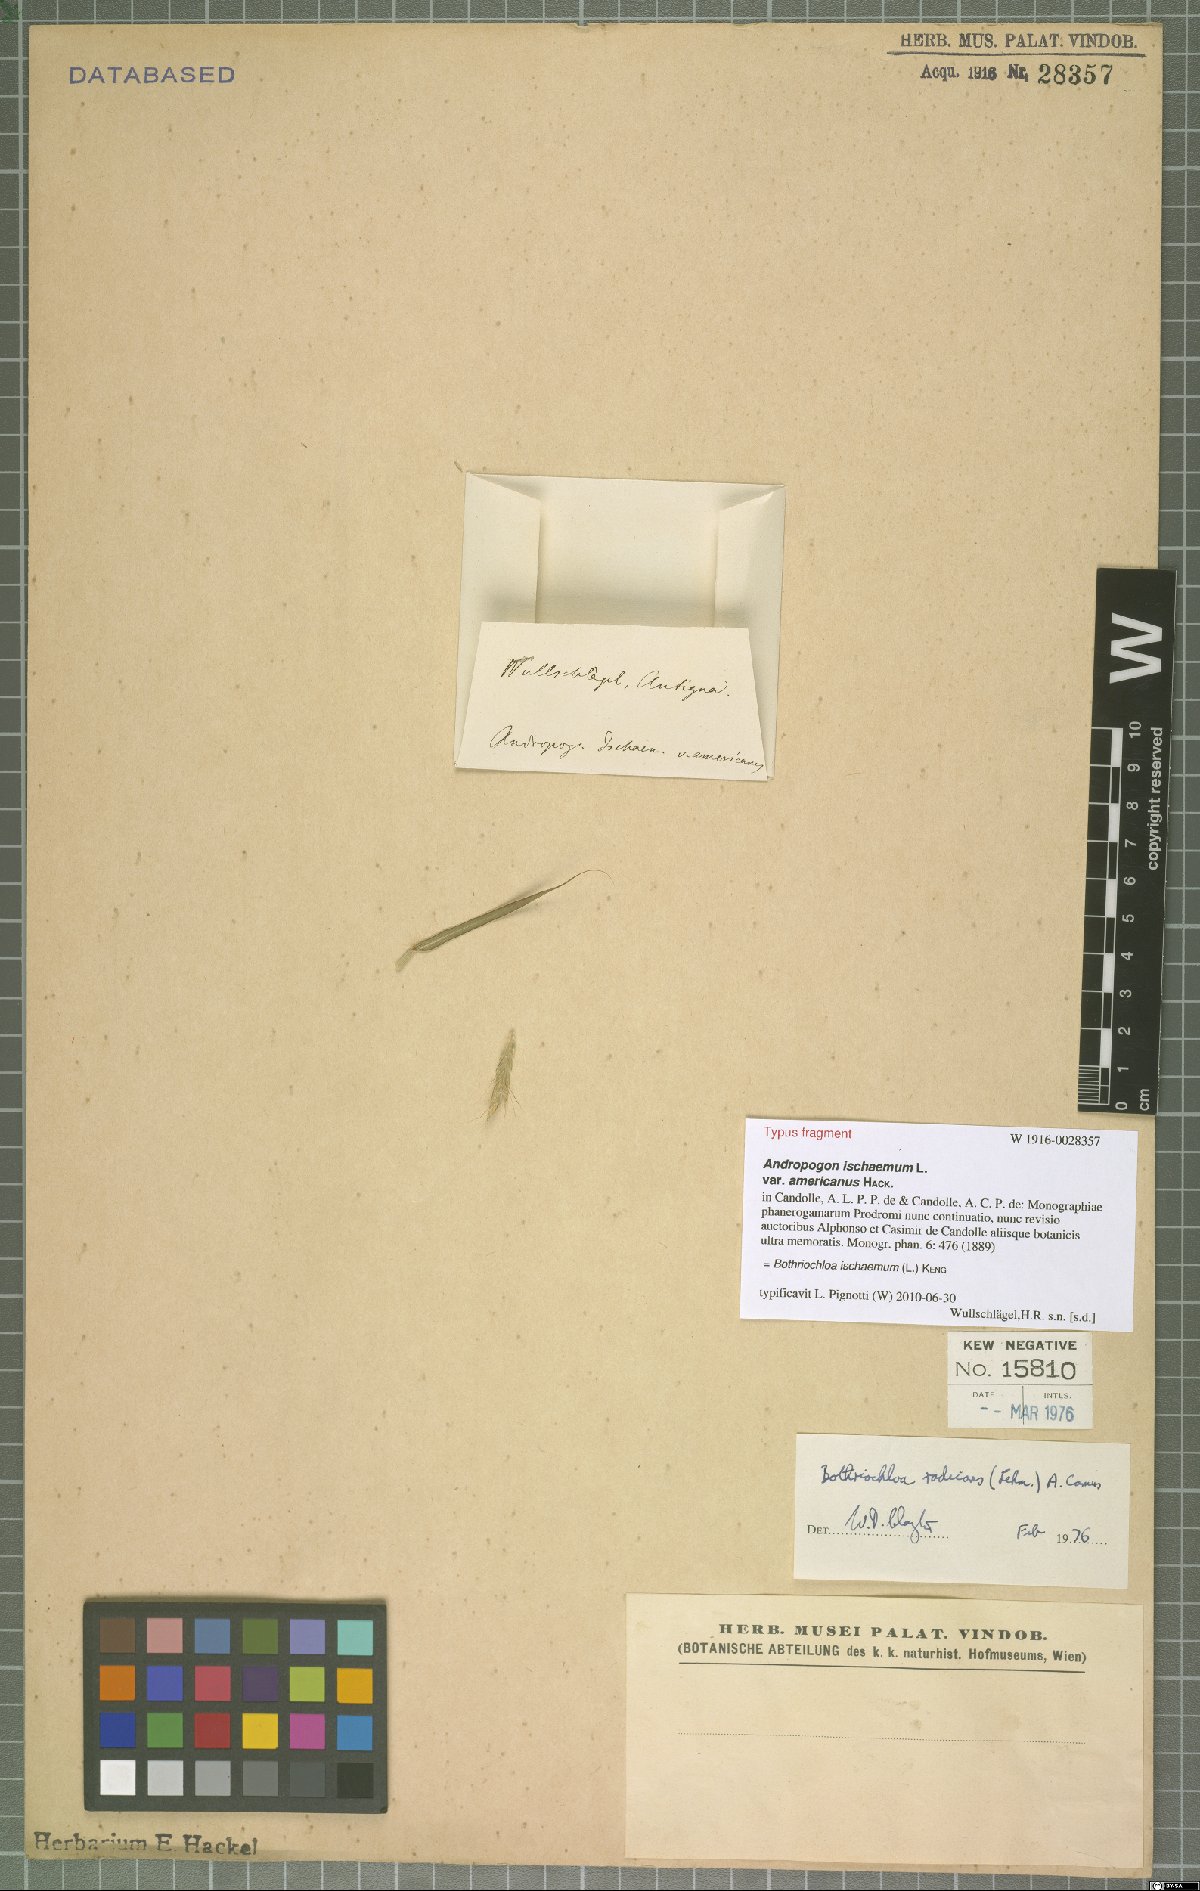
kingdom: Plantae
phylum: Tracheophyta
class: Liliopsida
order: Poales
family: Poaceae
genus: Bothriochloa
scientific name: Bothriochloa ischaemum
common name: Yellow bluestem
